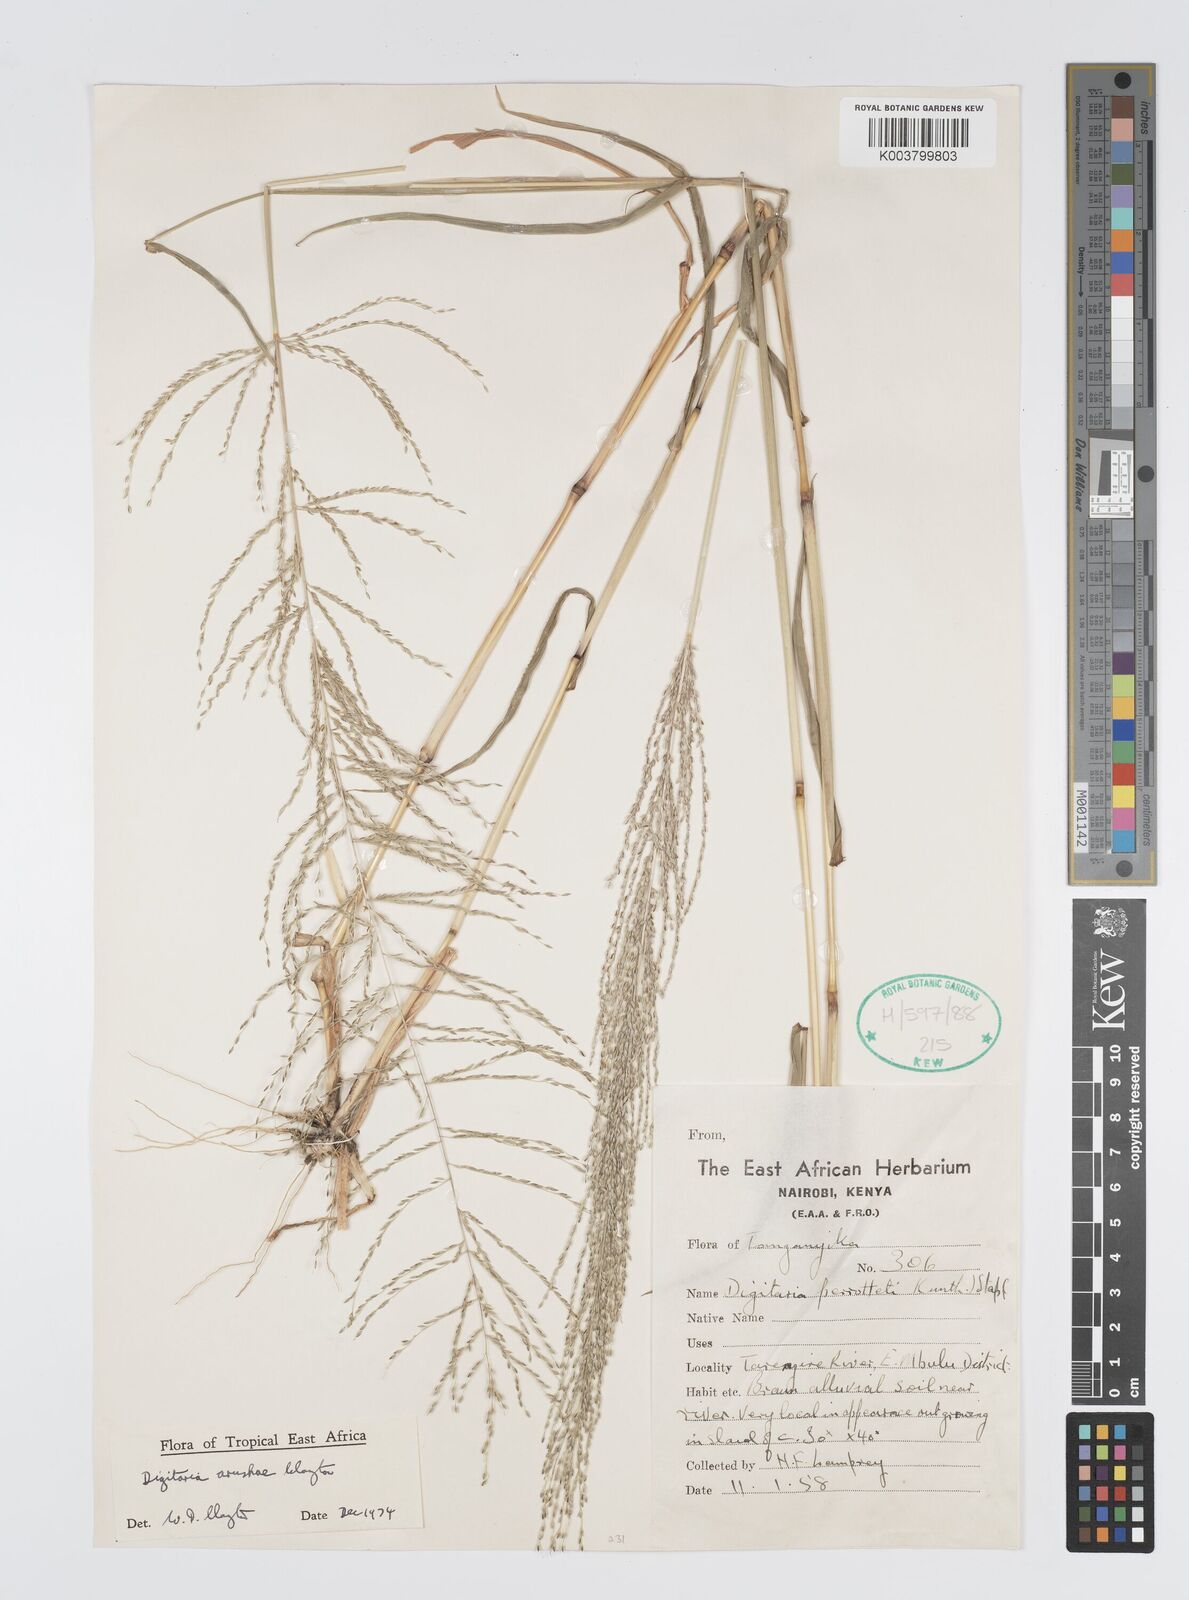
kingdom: Plantae
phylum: Tracheophyta
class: Liliopsida
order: Poales
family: Poaceae
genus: Digitaria
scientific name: Digitaria arushae
